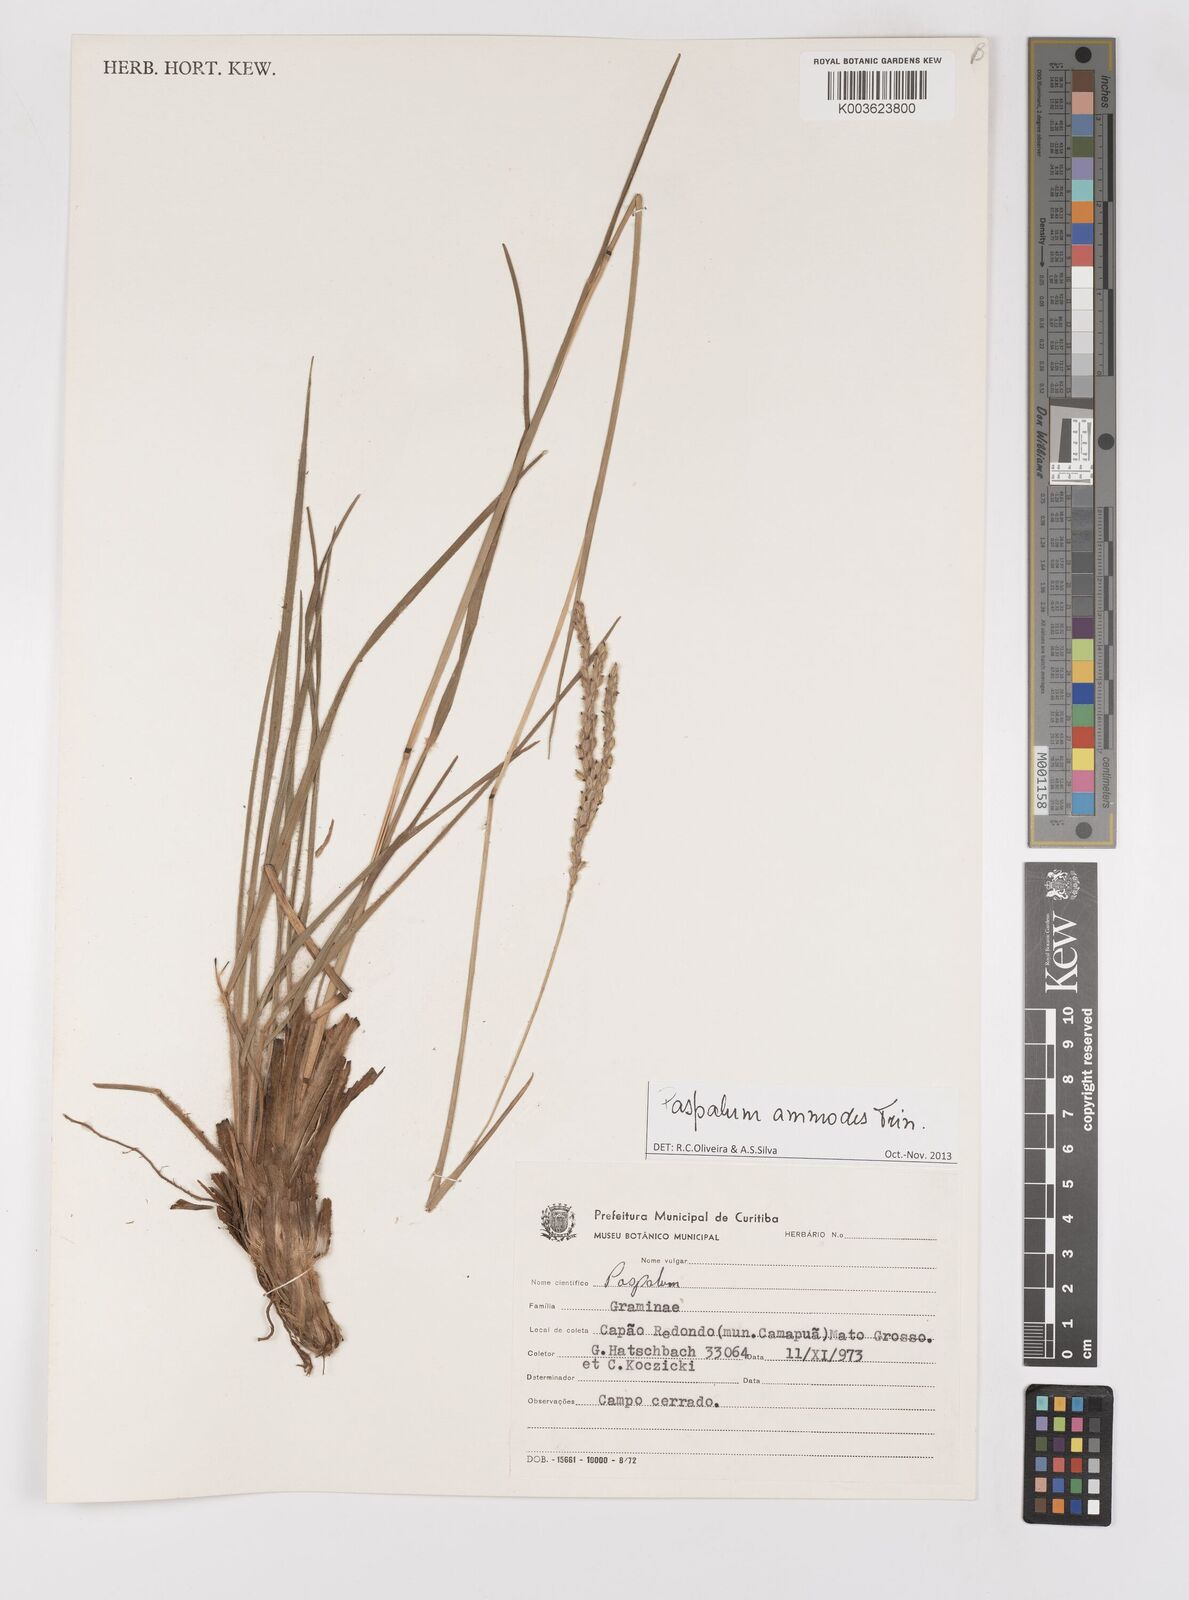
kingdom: Plantae
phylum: Tracheophyta
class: Liliopsida
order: Poales
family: Poaceae
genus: Paspalum
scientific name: Paspalum ammodes
